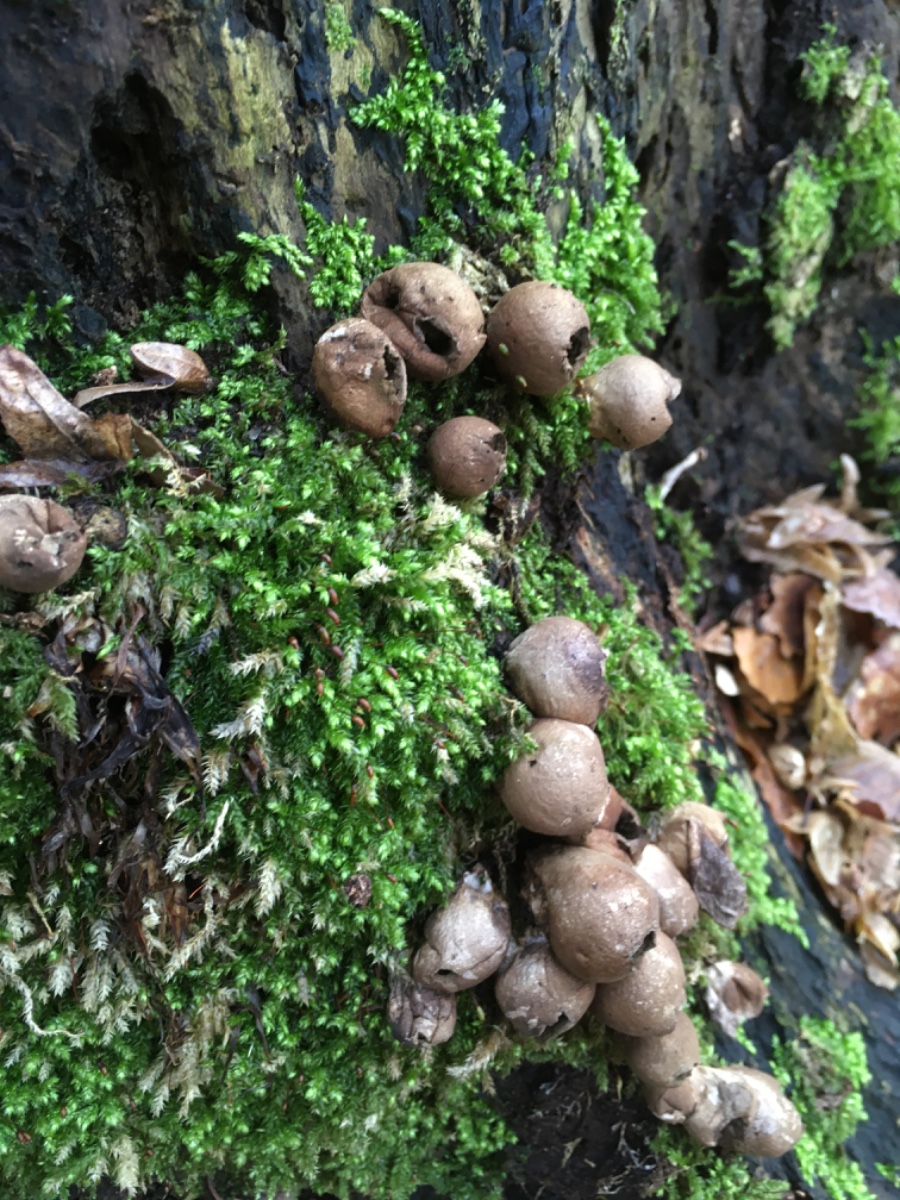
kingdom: Fungi
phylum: Basidiomycota
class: Agaricomycetes
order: Agaricales
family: Lycoperdaceae
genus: Apioperdon
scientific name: Apioperdon pyriforme
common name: pære-støvbold
